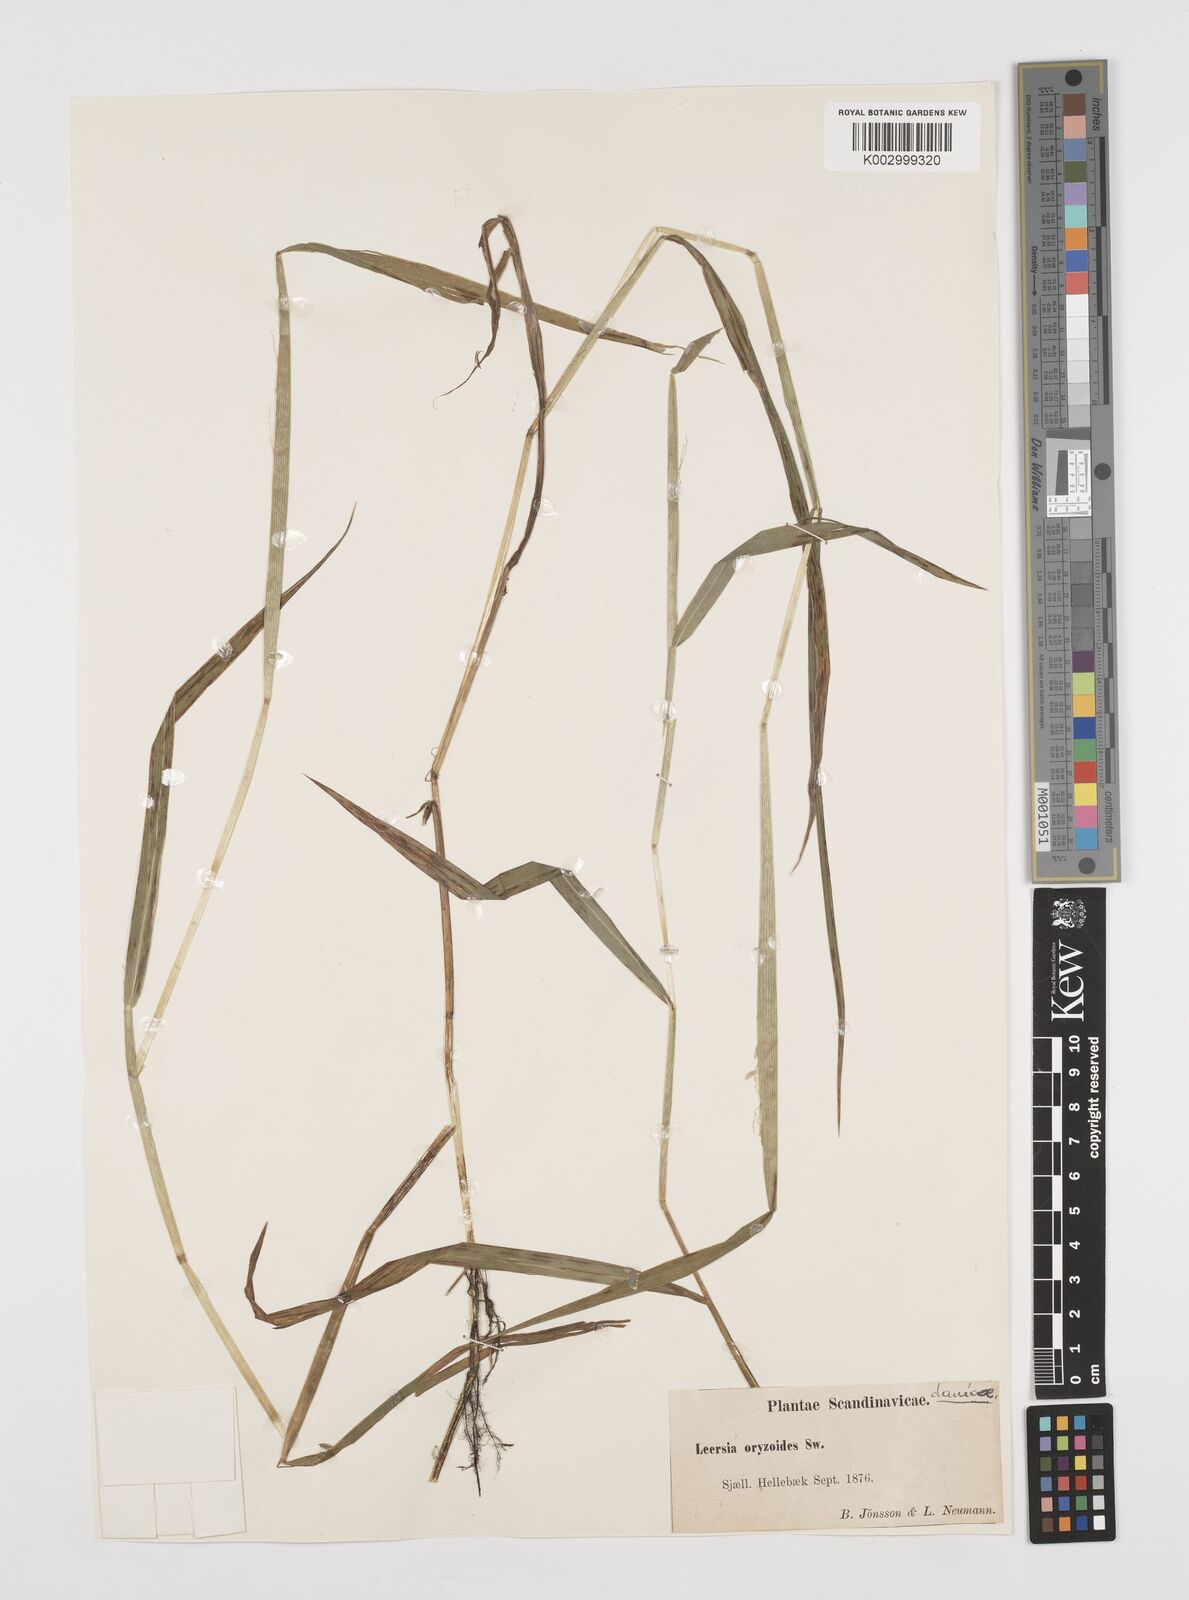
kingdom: Plantae
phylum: Tracheophyta
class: Liliopsida
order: Poales
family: Poaceae
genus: Leersia
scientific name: Leersia oryzoides
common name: Cut-grass
